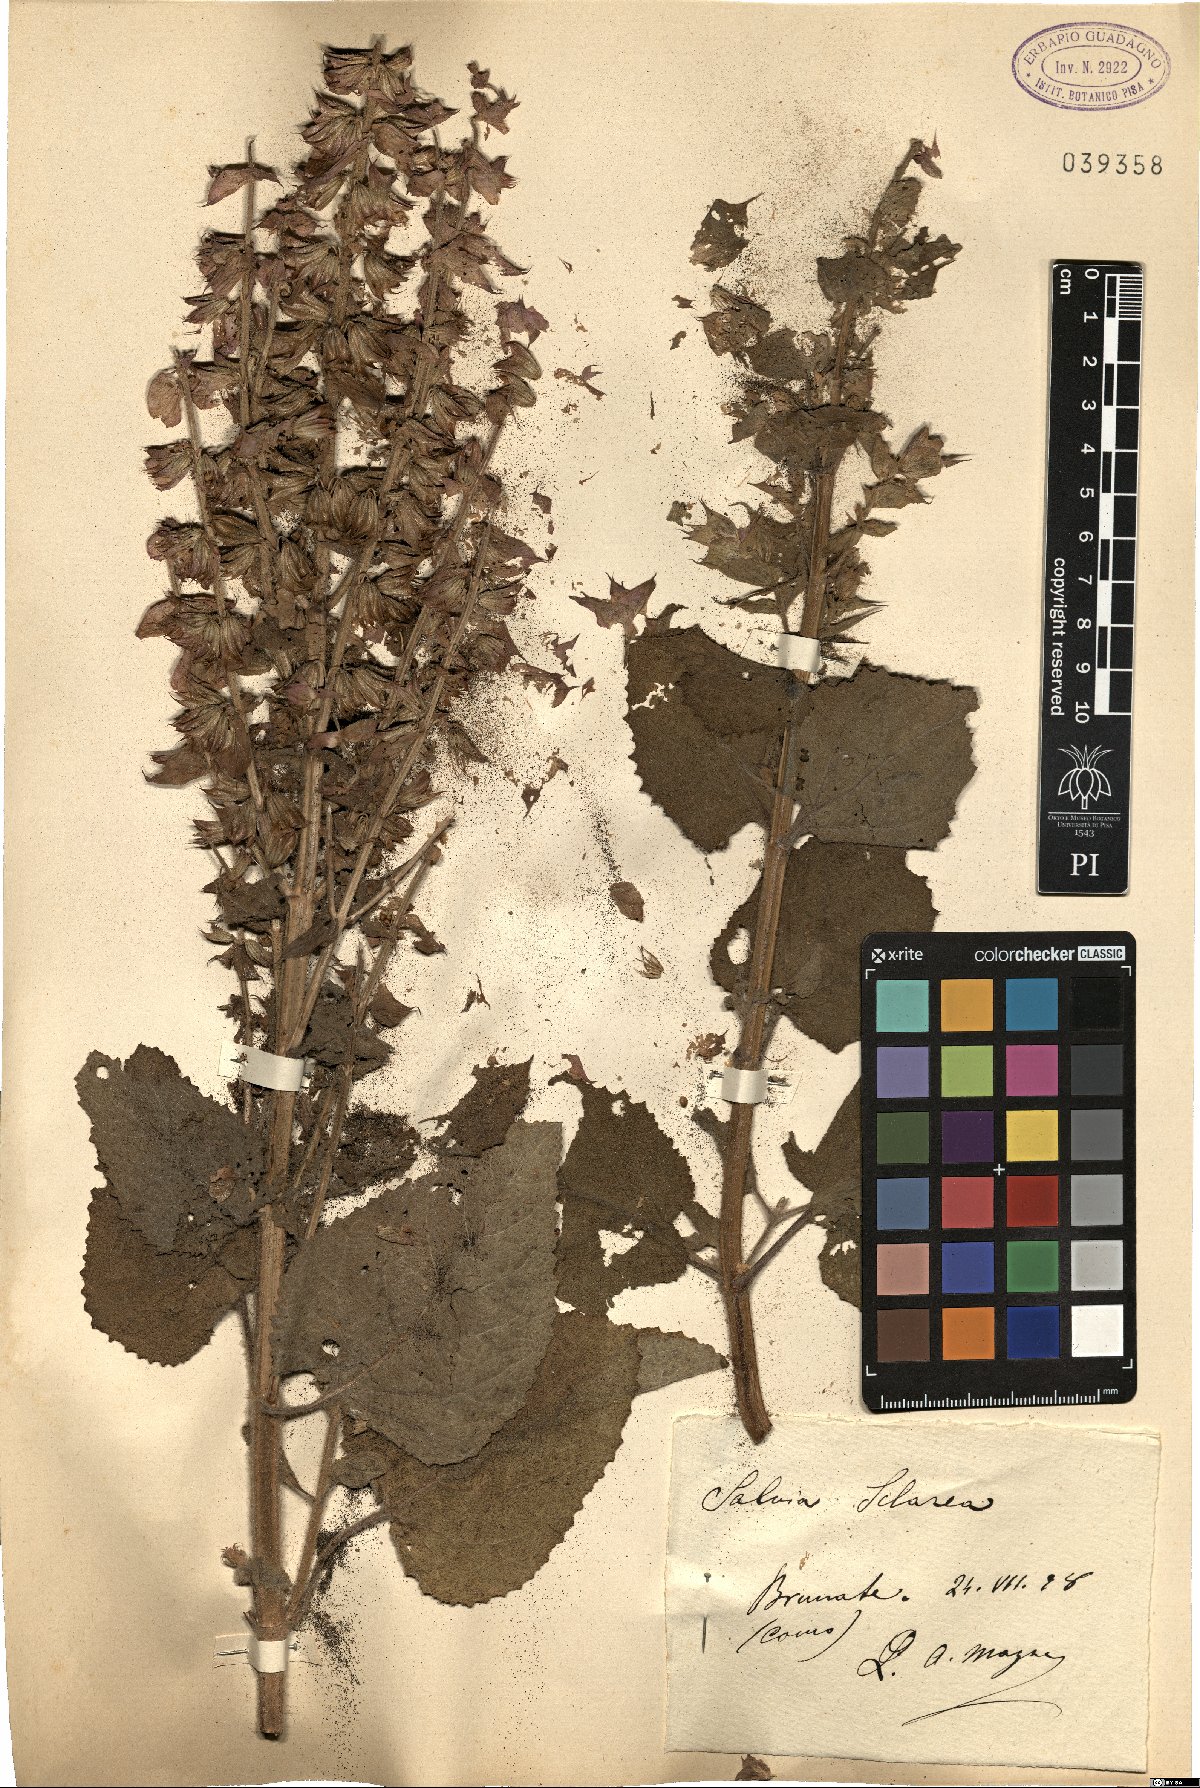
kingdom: Plantae
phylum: Tracheophyta
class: Magnoliopsida
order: Lamiales
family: Lamiaceae
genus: Salvia
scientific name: Salvia sclarea
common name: Clary
